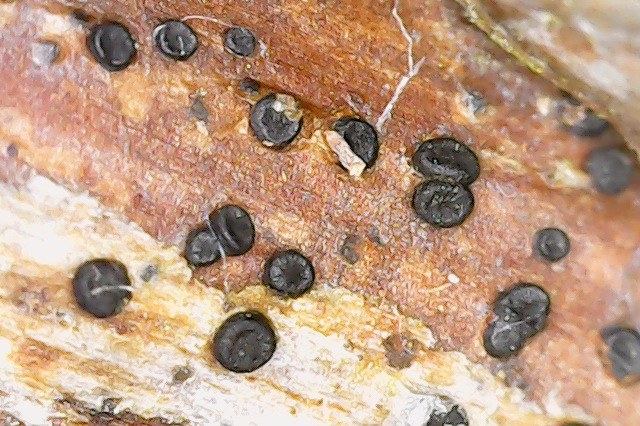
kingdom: Fungi
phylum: Ascomycota
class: Leotiomycetes
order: Helotiales
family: Ploettnerulaceae
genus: Pyrenopeziza
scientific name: Pyrenopeziza rubi
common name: hindbær-kerneskive
